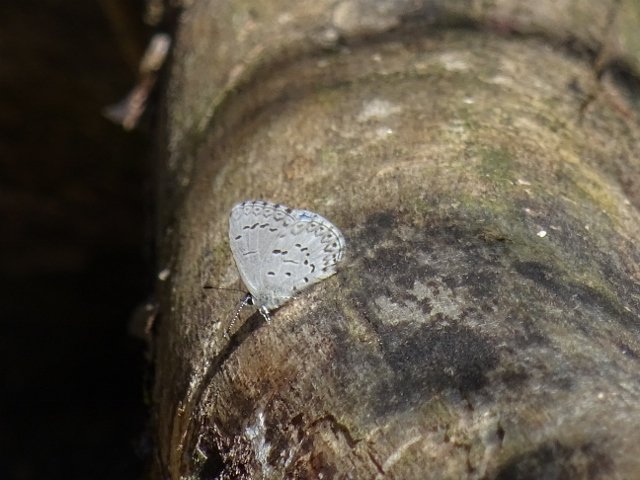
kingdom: Animalia
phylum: Arthropoda
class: Insecta
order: Lepidoptera
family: Lycaenidae
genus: Celastrina
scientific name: Celastrina lucia
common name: Northern Spring Azure
